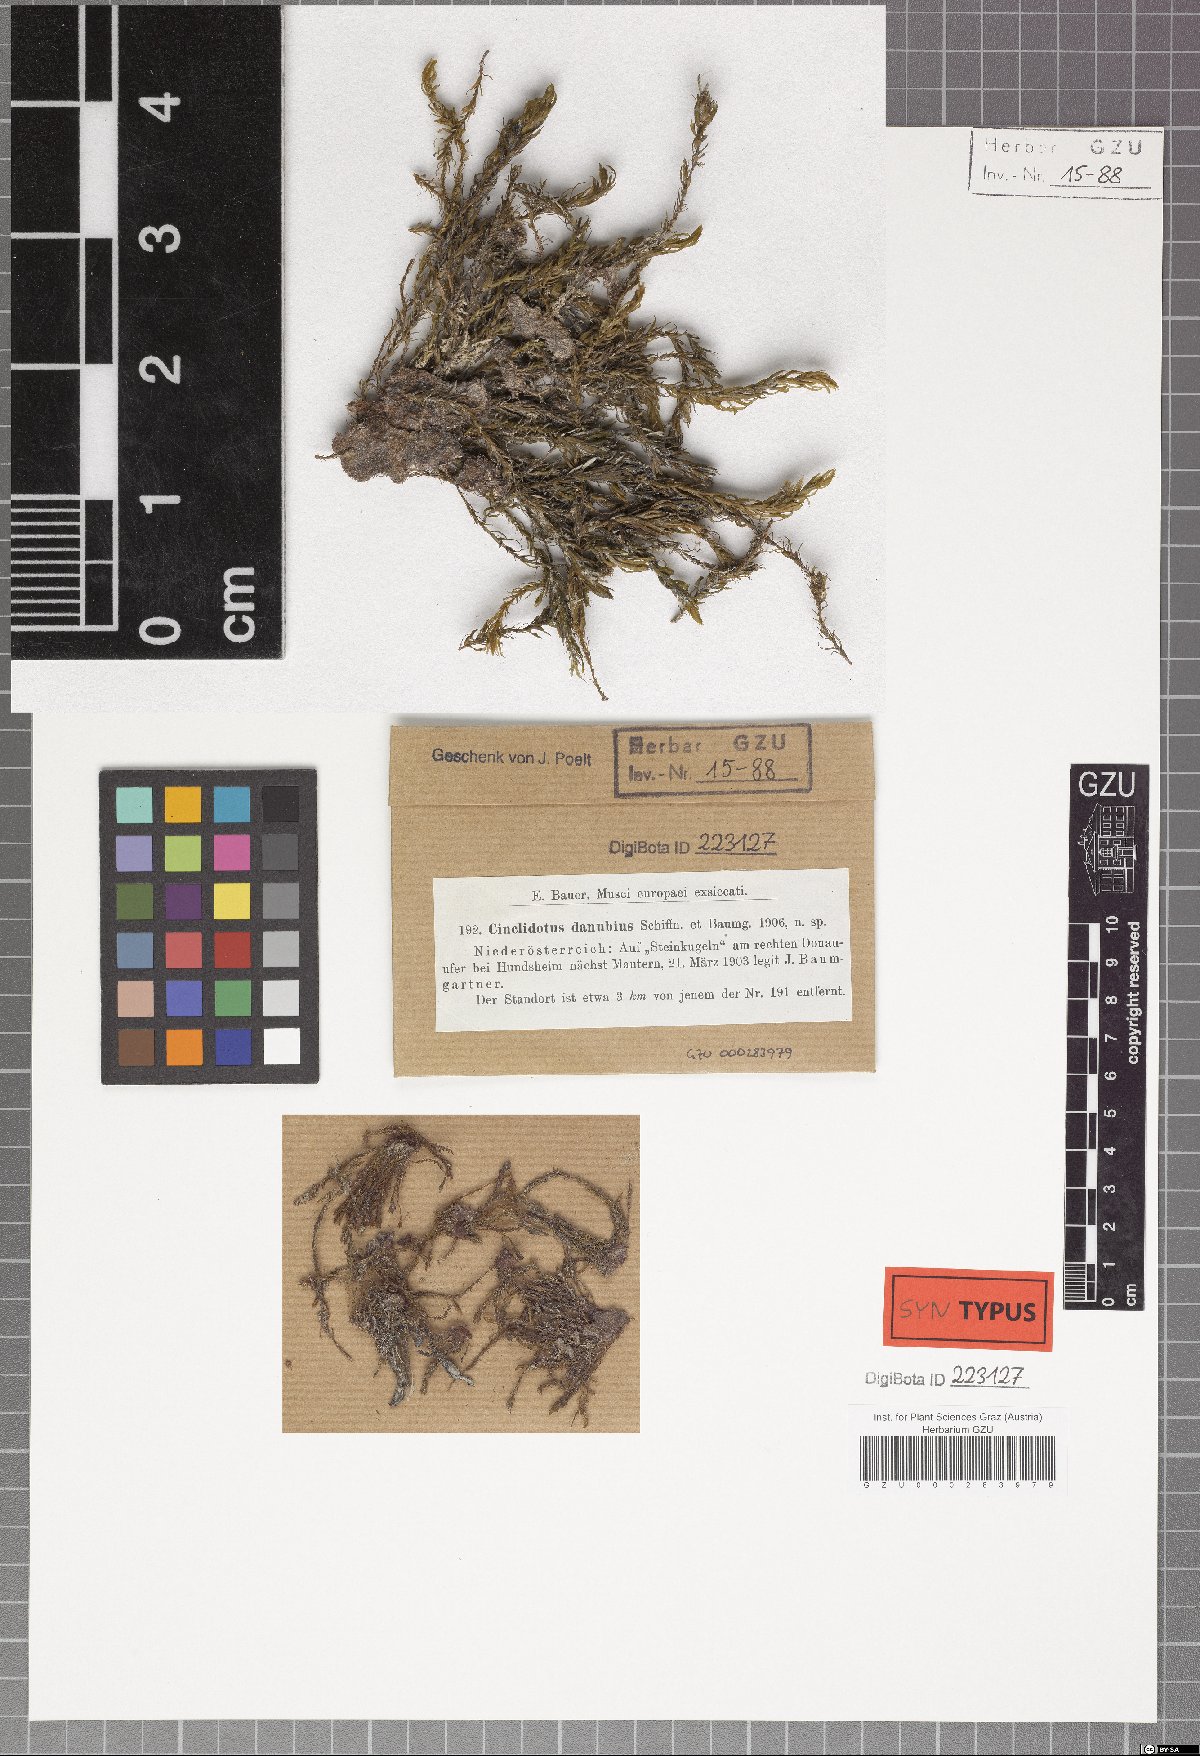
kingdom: Plantae
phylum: Bryophyta
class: Bryopsida
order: Pottiales
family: Pottiaceae
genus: Cinclidotus
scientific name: Cinclidotus danubicus
